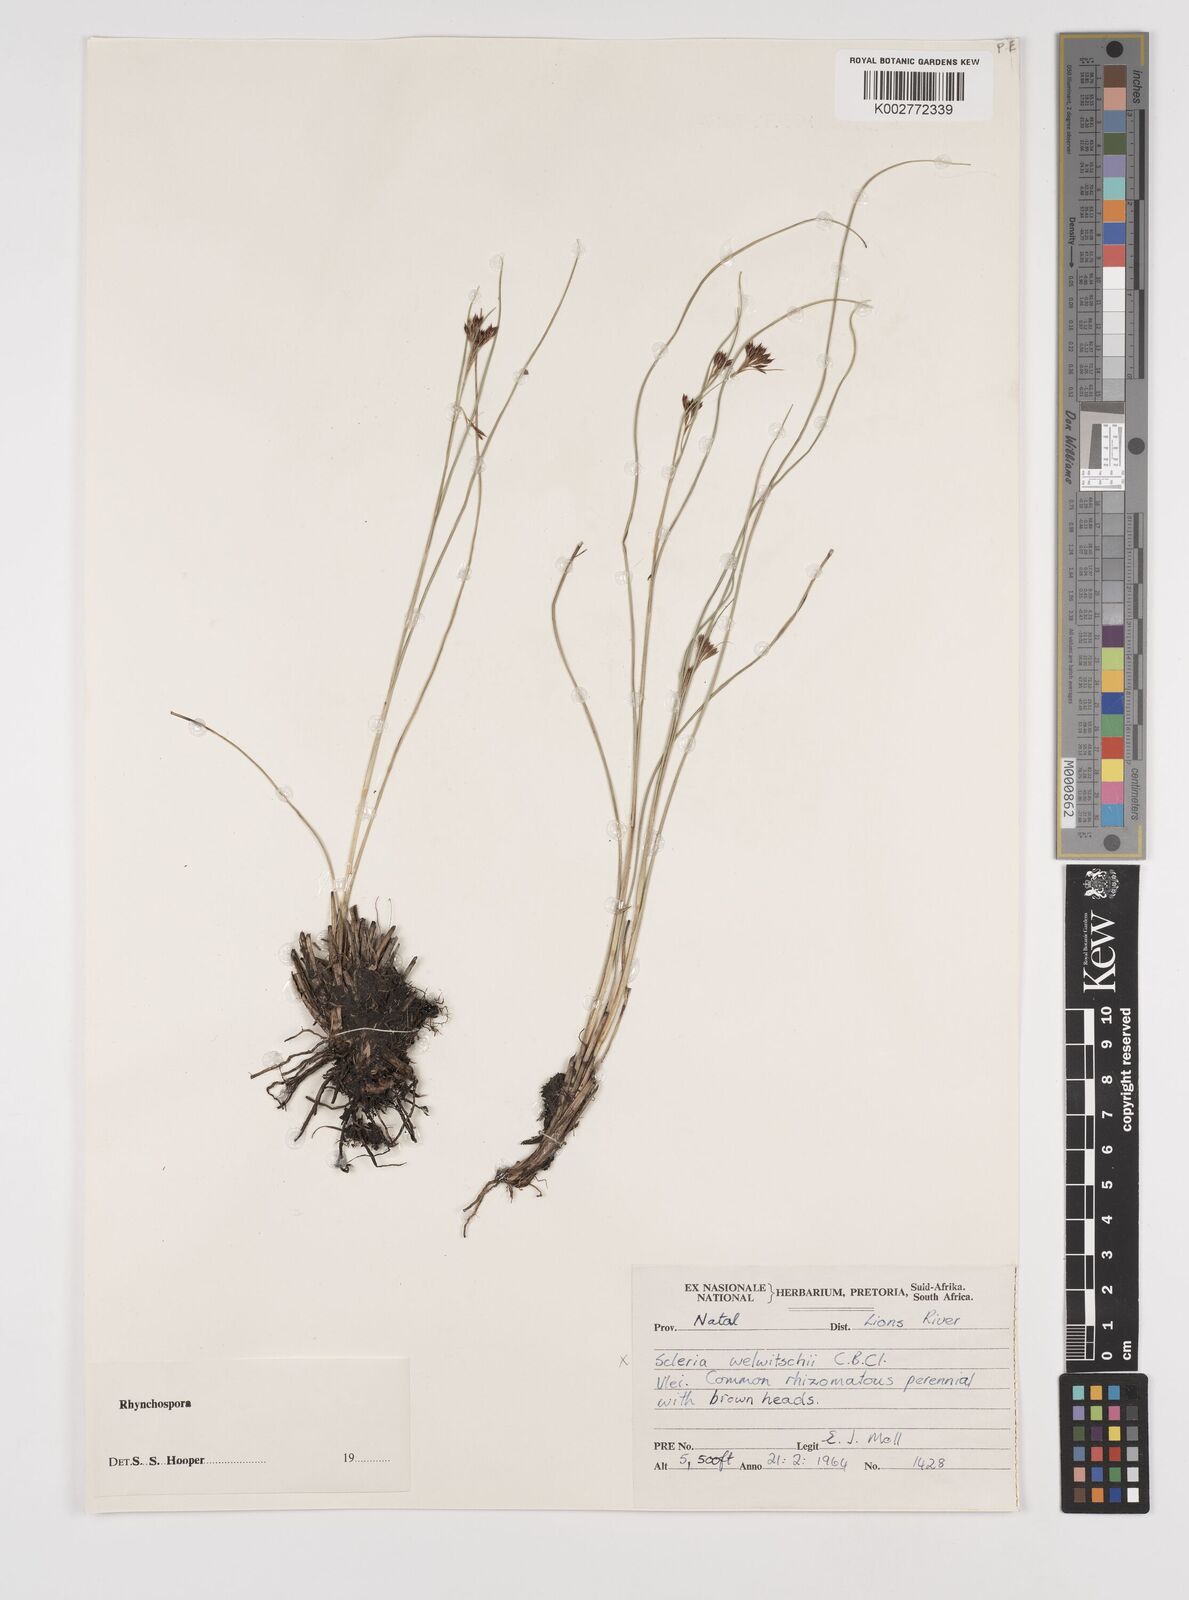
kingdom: Plantae
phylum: Tracheophyta
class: Liliopsida
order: Poales
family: Cyperaceae
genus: Rhynchospora
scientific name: Rhynchospora
